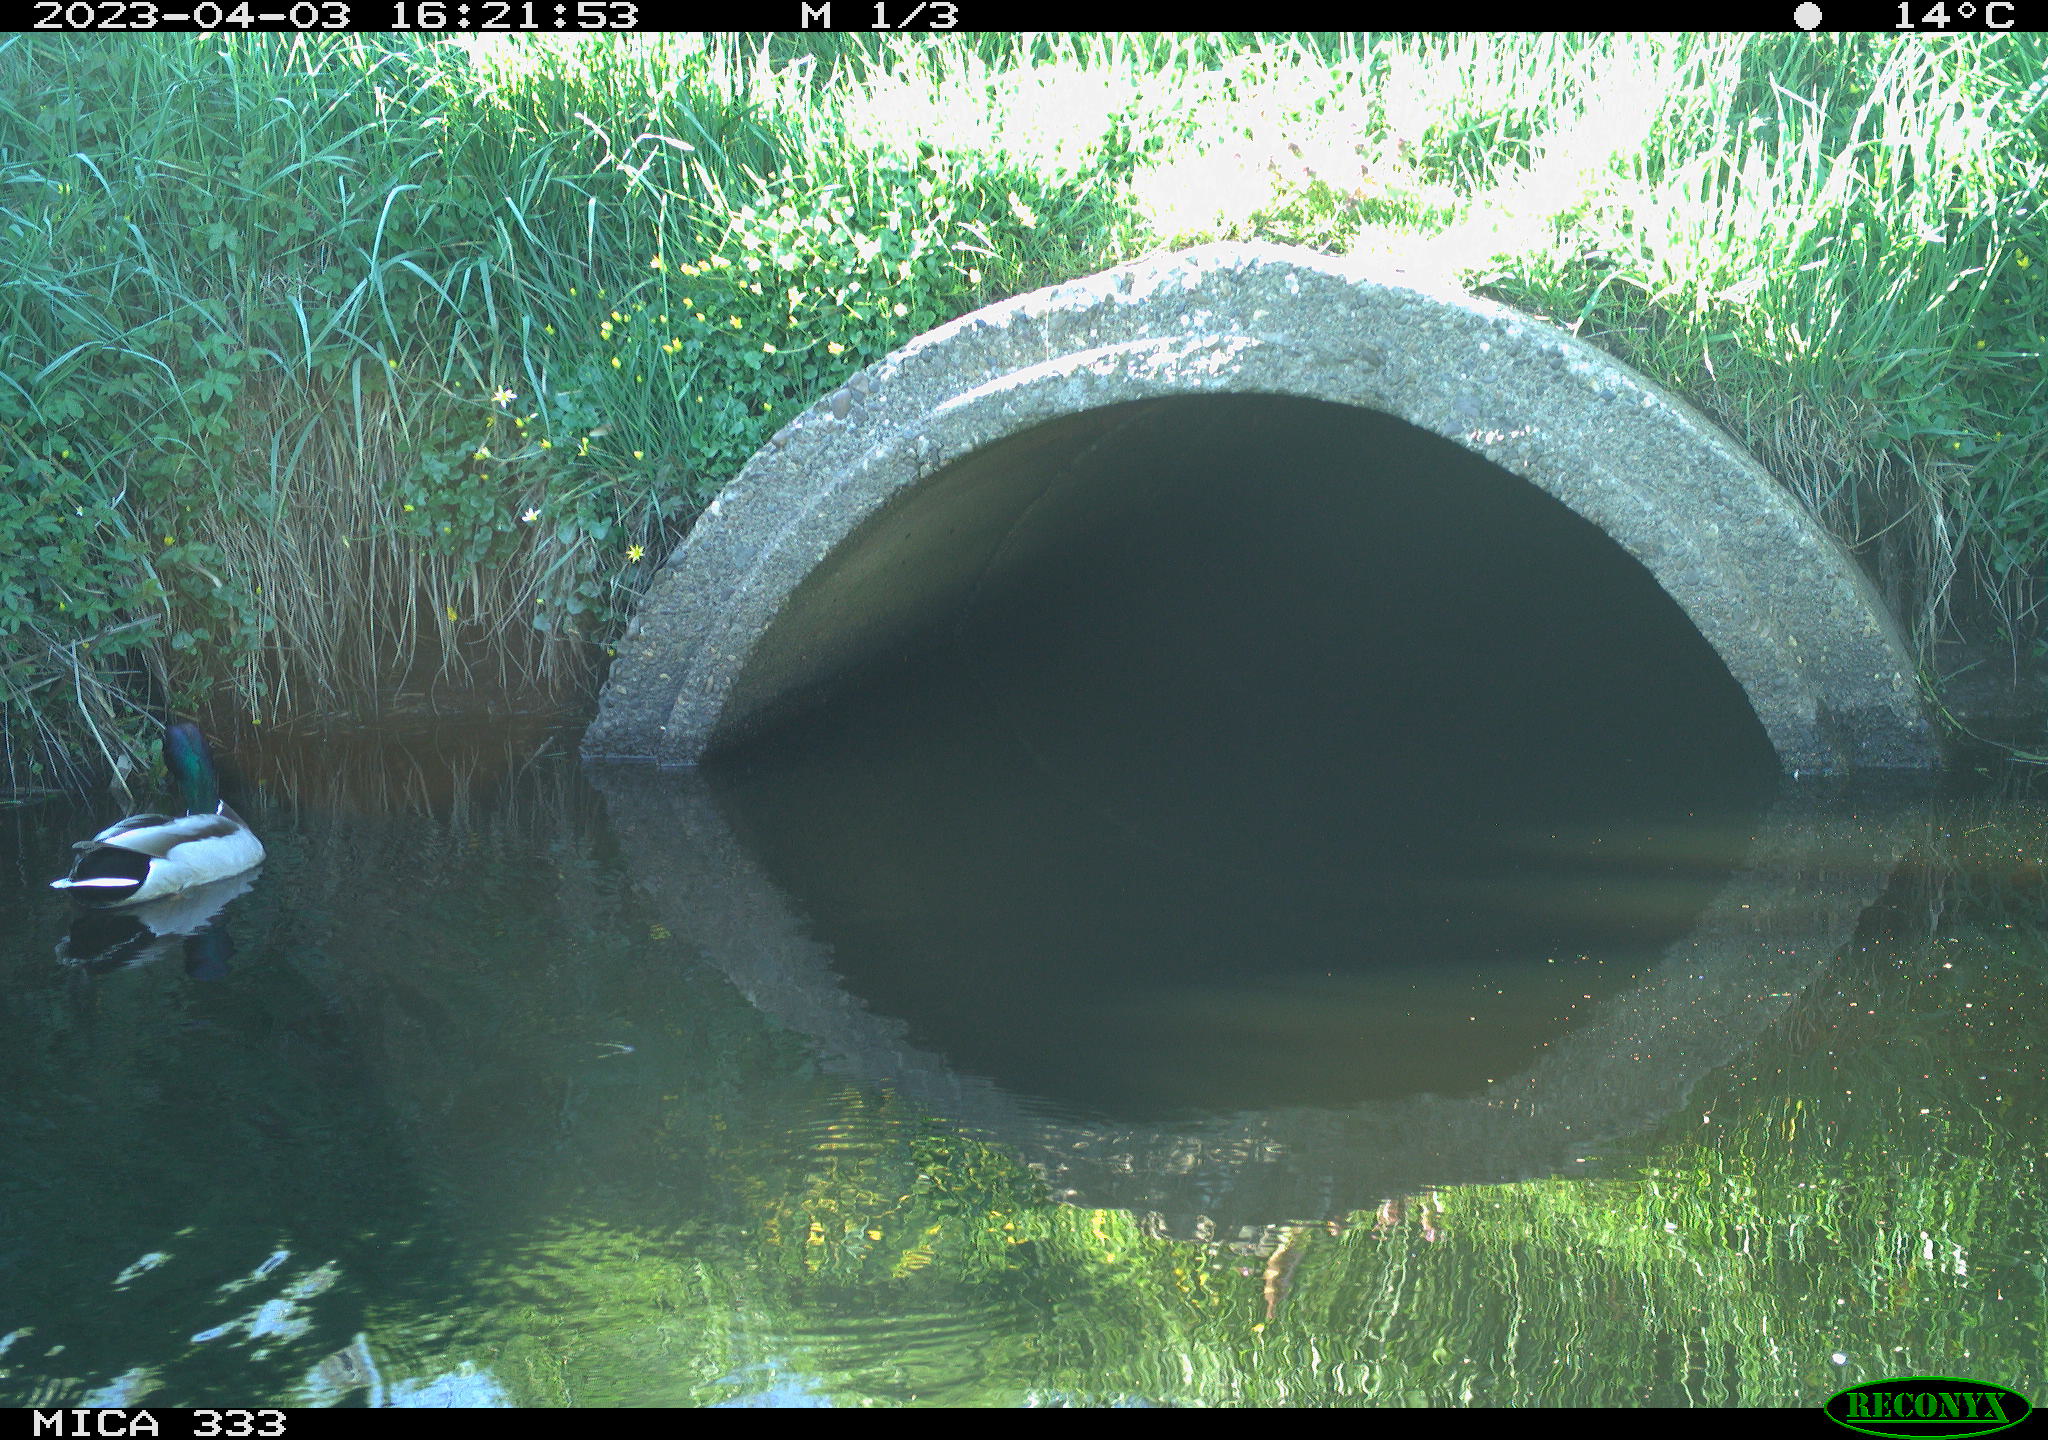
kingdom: Animalia
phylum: Chordata
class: Aves
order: Anseriformes
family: Anatidae
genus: Anas
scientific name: Anas
